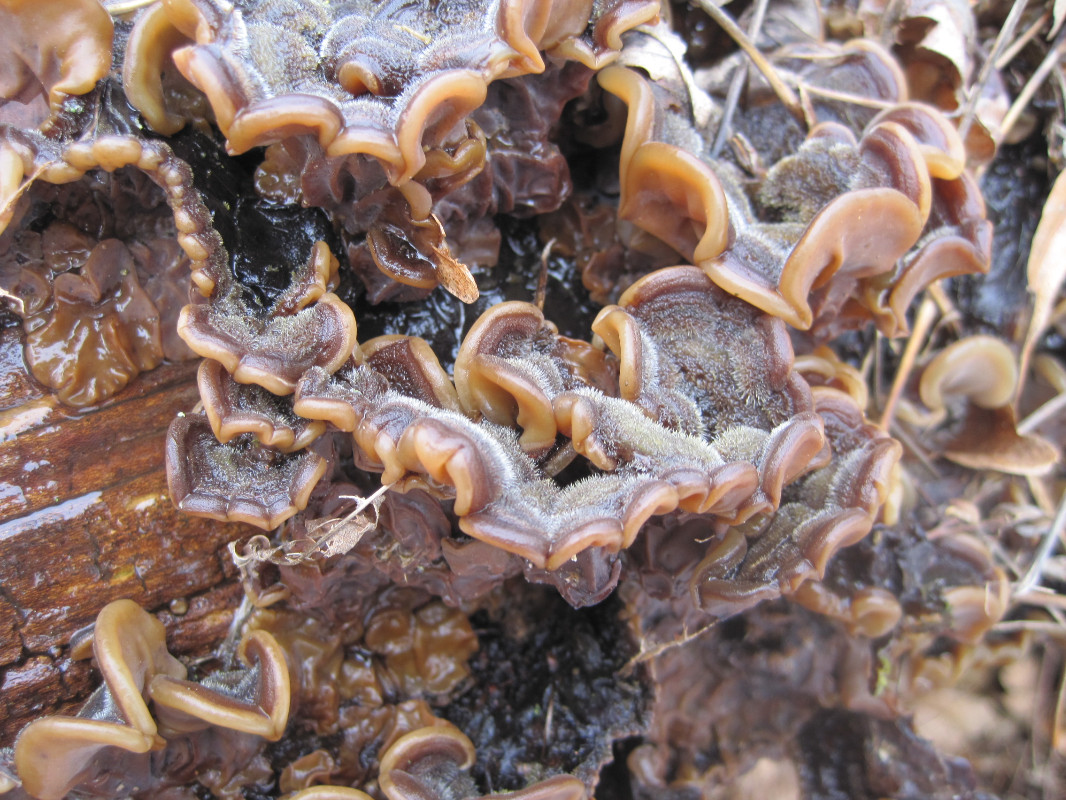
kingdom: Fungi
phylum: Basidiomycota
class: Agaricomycetes
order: Auriculariales
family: Auriculariaceae
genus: Auricularia
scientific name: Auricularia mesenterica
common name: håret judasøre
